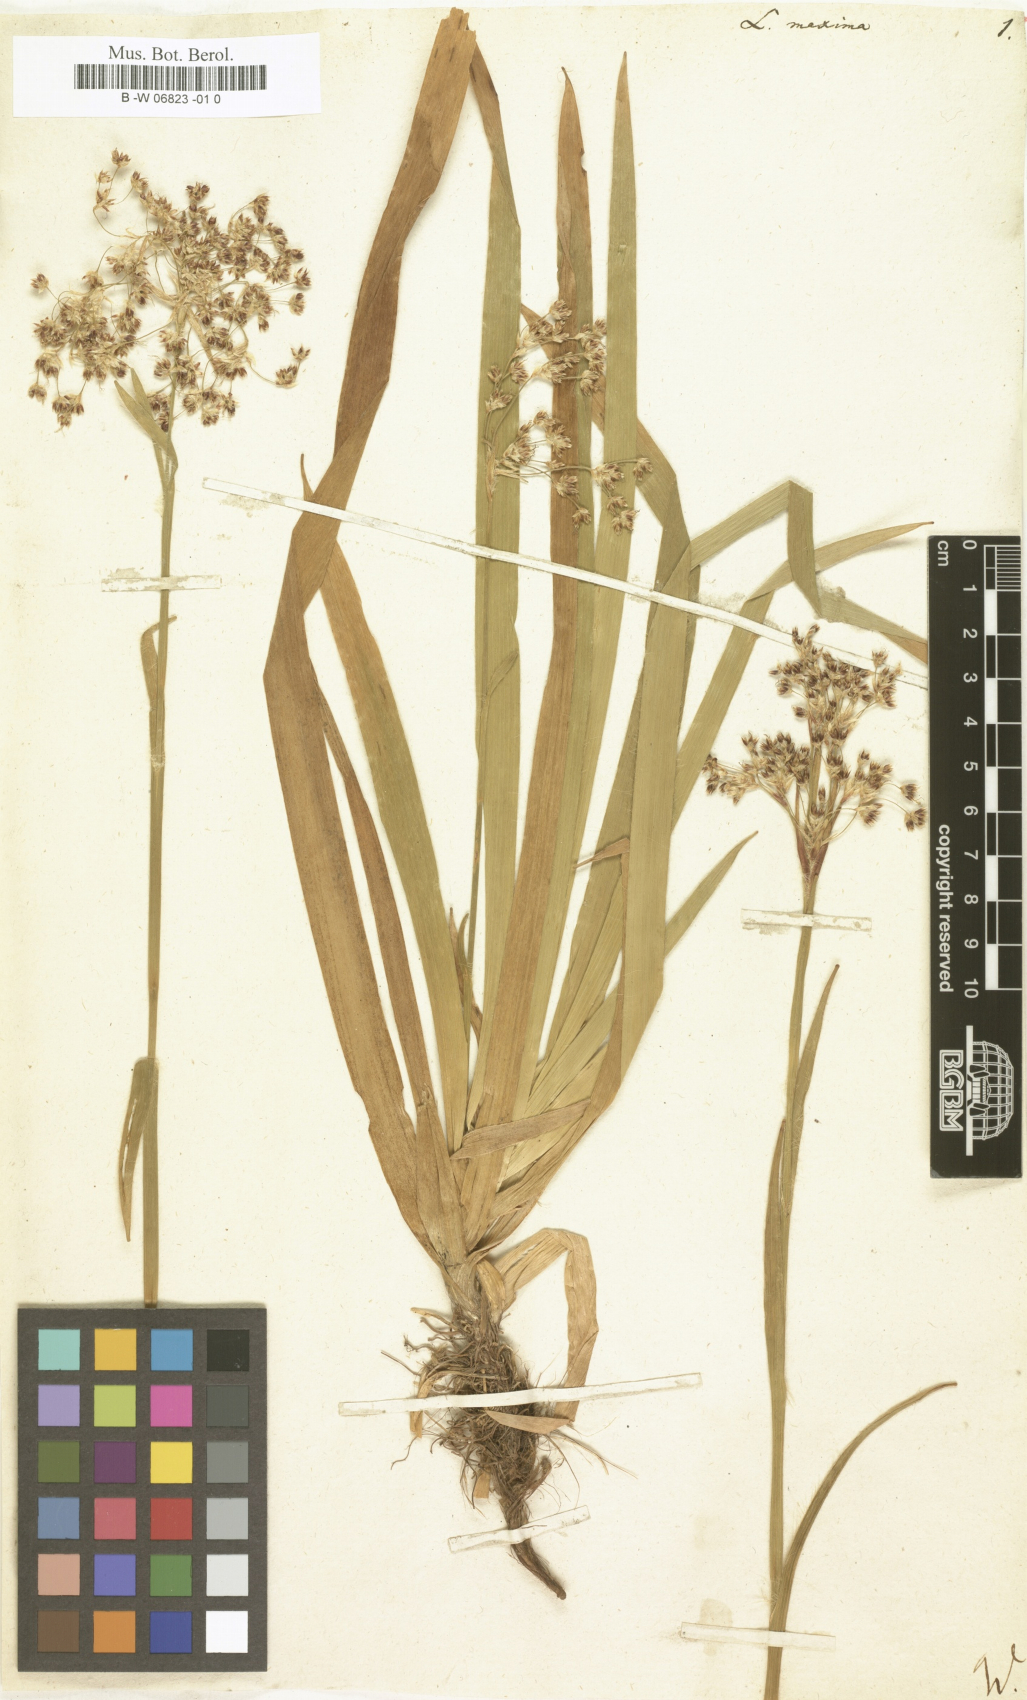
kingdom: Plantae
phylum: Tracheophyta
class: Liliopsida
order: Poales
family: Juncaceae
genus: Luzula
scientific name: Luzula sylvatica
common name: Great wood-rush
